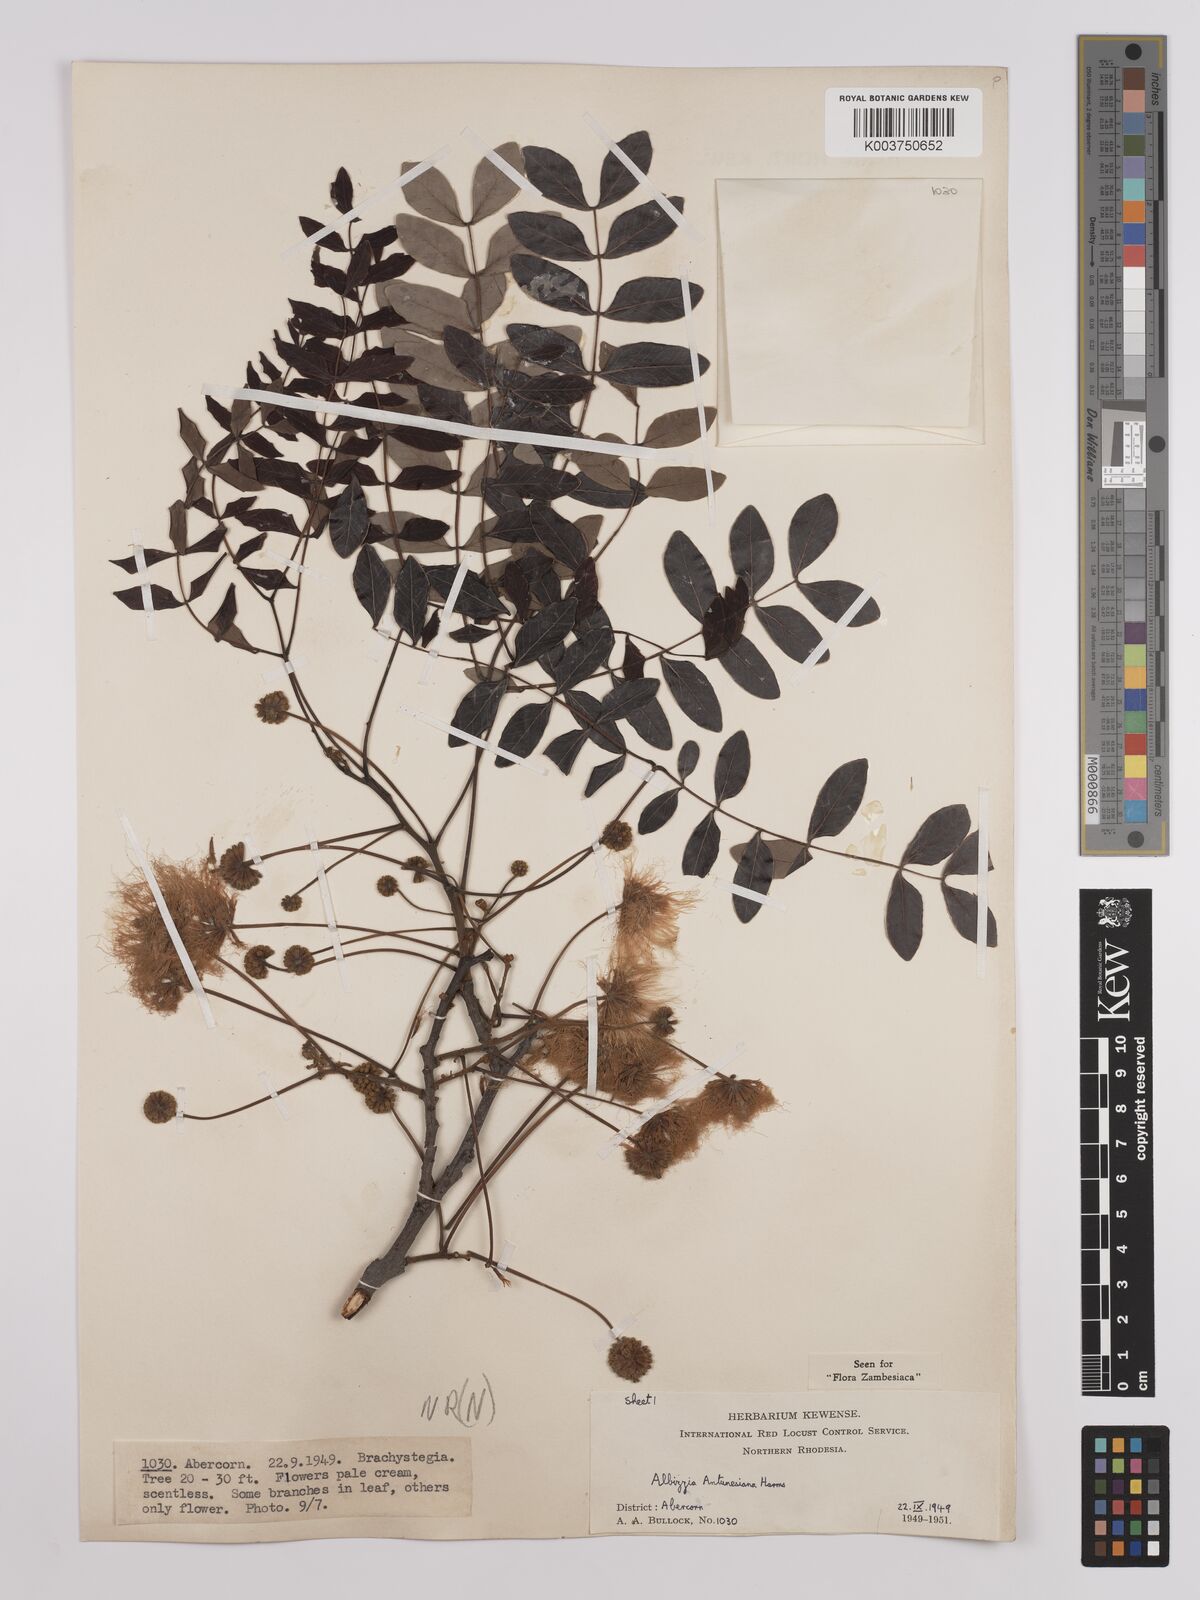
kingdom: Plantae
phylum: Tracheophyta
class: Magnoliopsida
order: Fabales
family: Fabaceae
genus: Albizia
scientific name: Albizia antunesiana
